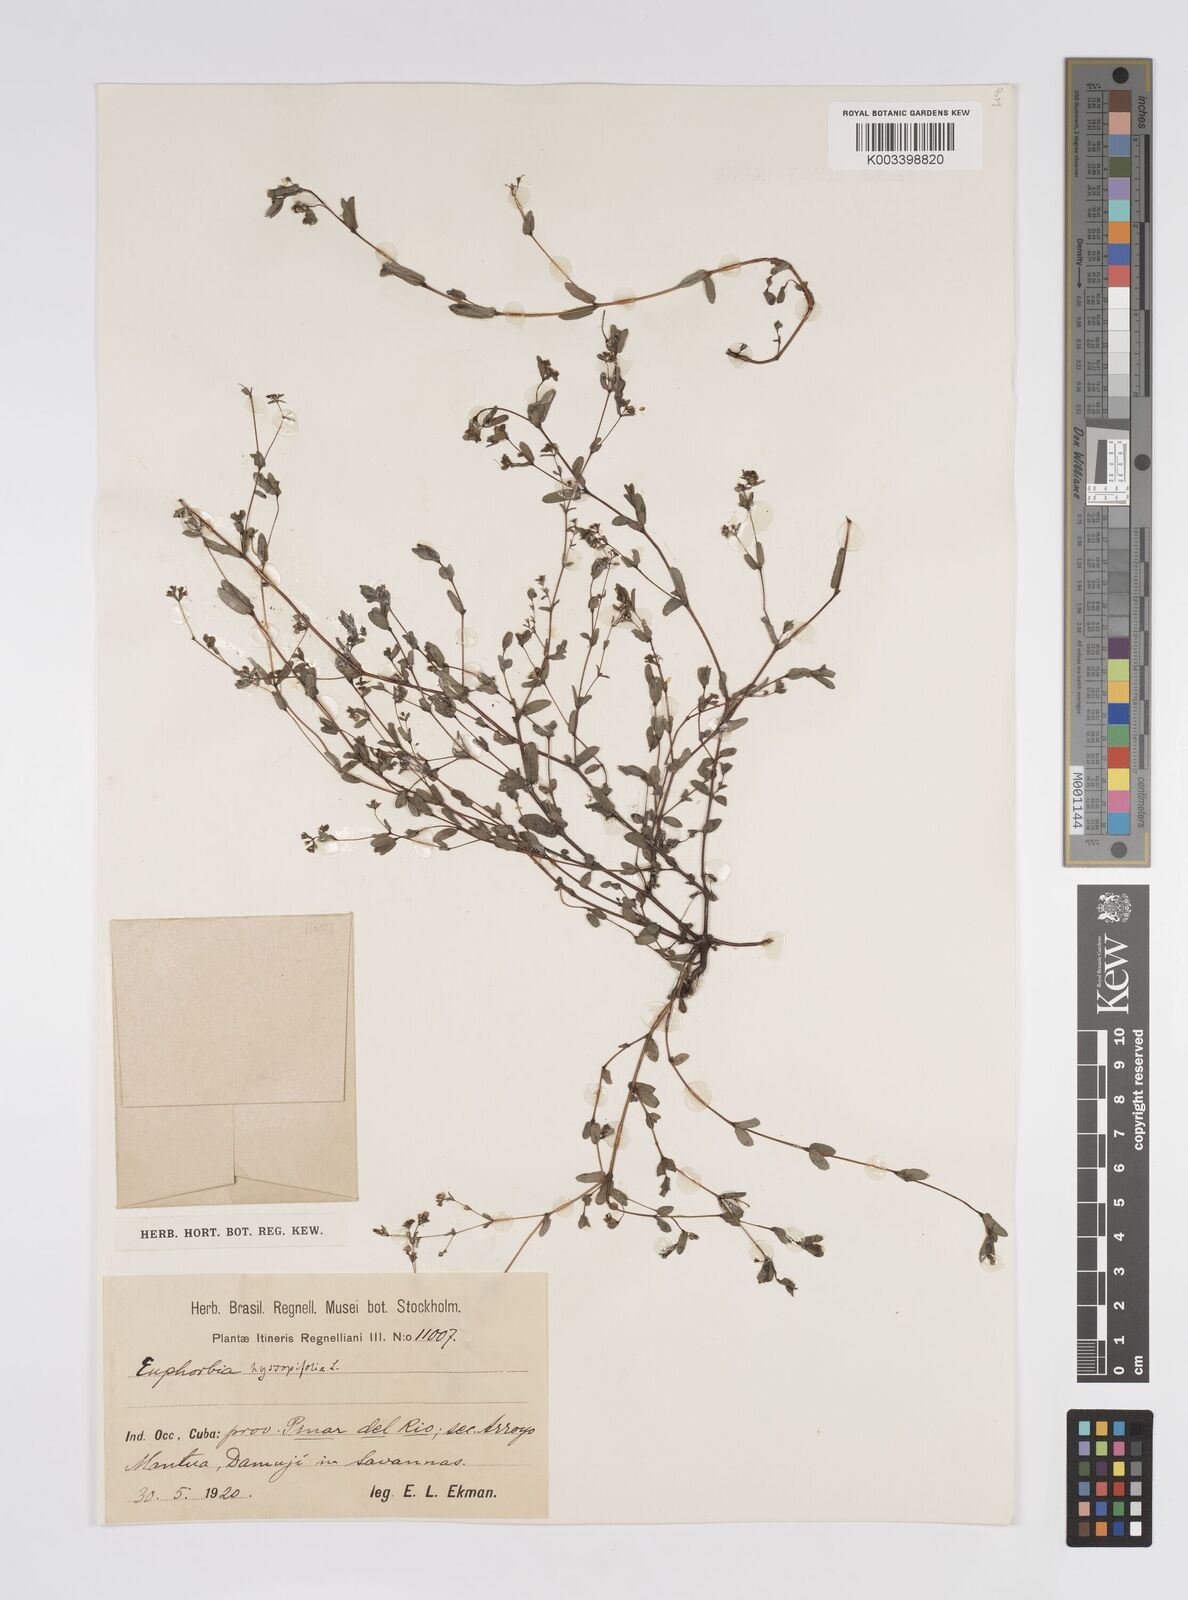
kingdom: Plantae
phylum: Tracheophyta
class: Magnoliopsida
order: Malpighiales
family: Euphorbiaceae
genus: Euphorbia
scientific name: Euphorbia hyssopifolia
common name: Hyssopleaf sandmat
